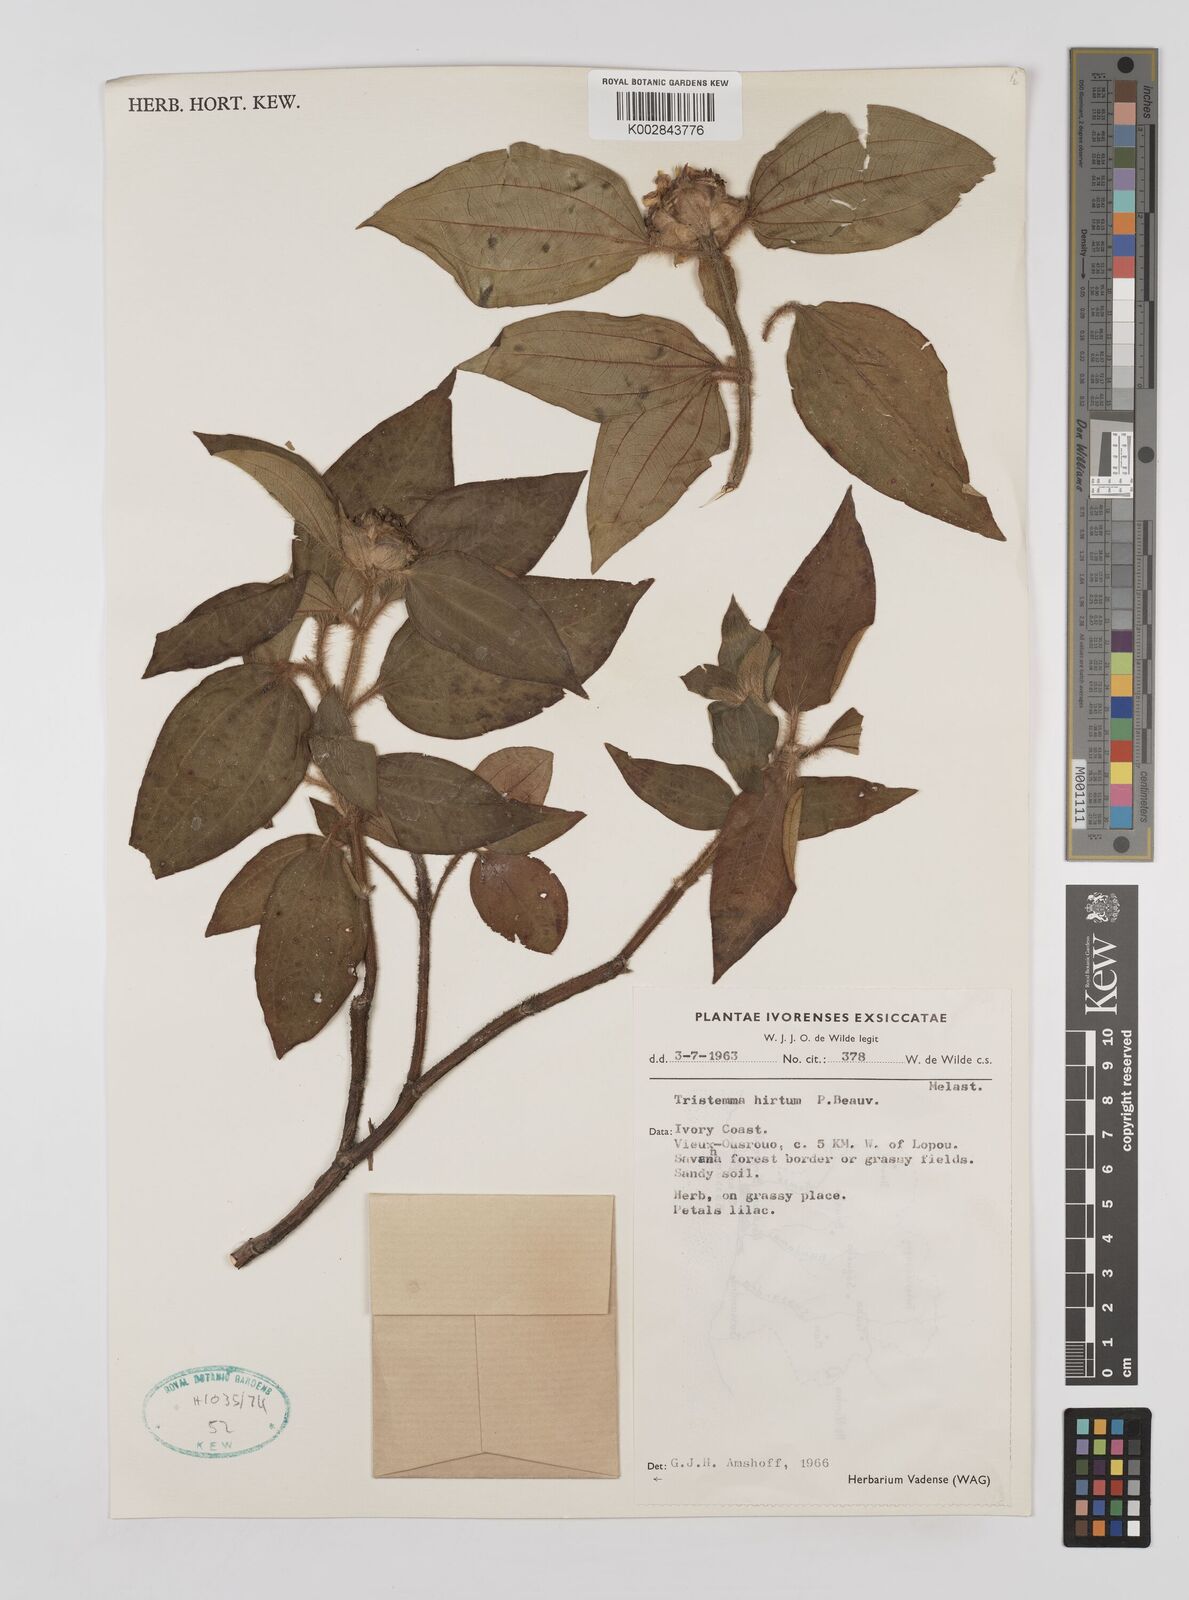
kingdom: Plantae
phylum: Tracheophyta
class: Magnoliopsida
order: Myrtales
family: Melastomataceae
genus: Tristemma
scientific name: Tristemma hirtum
